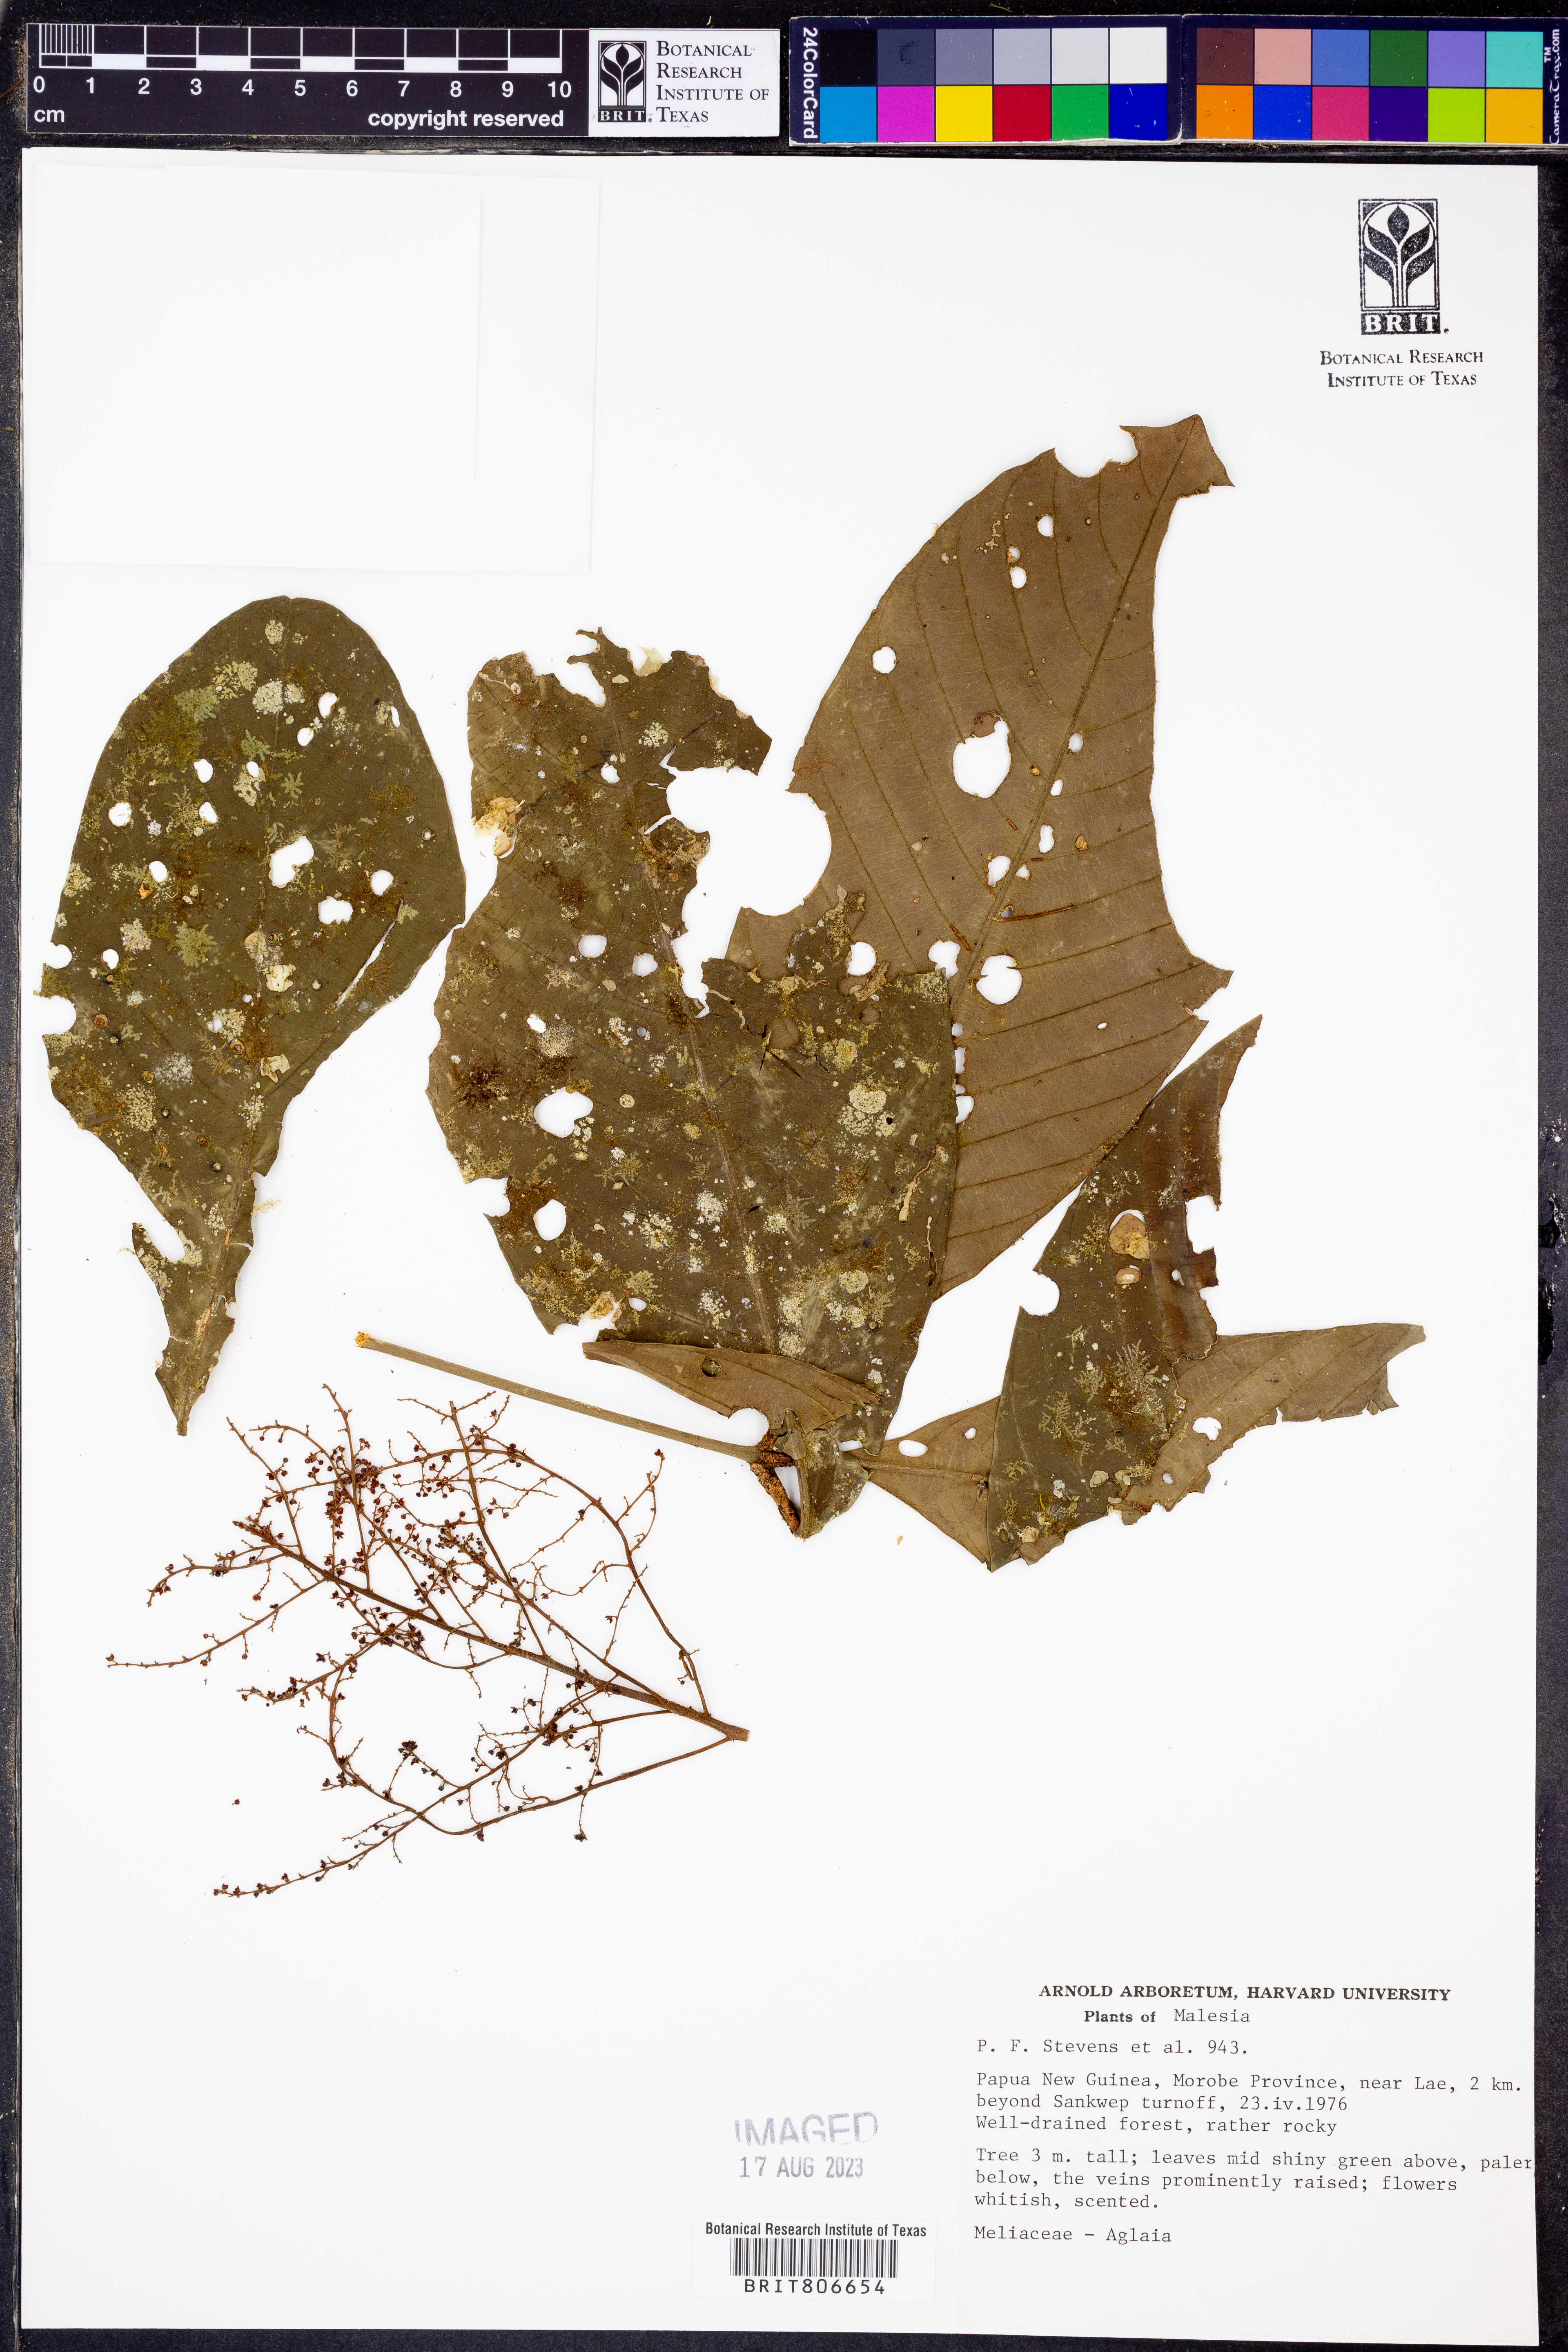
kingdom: Plantae
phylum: Tracheophyta
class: Magnoliopsida
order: Sapindales
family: Meliaceae
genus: Aglaia
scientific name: Aglaia
